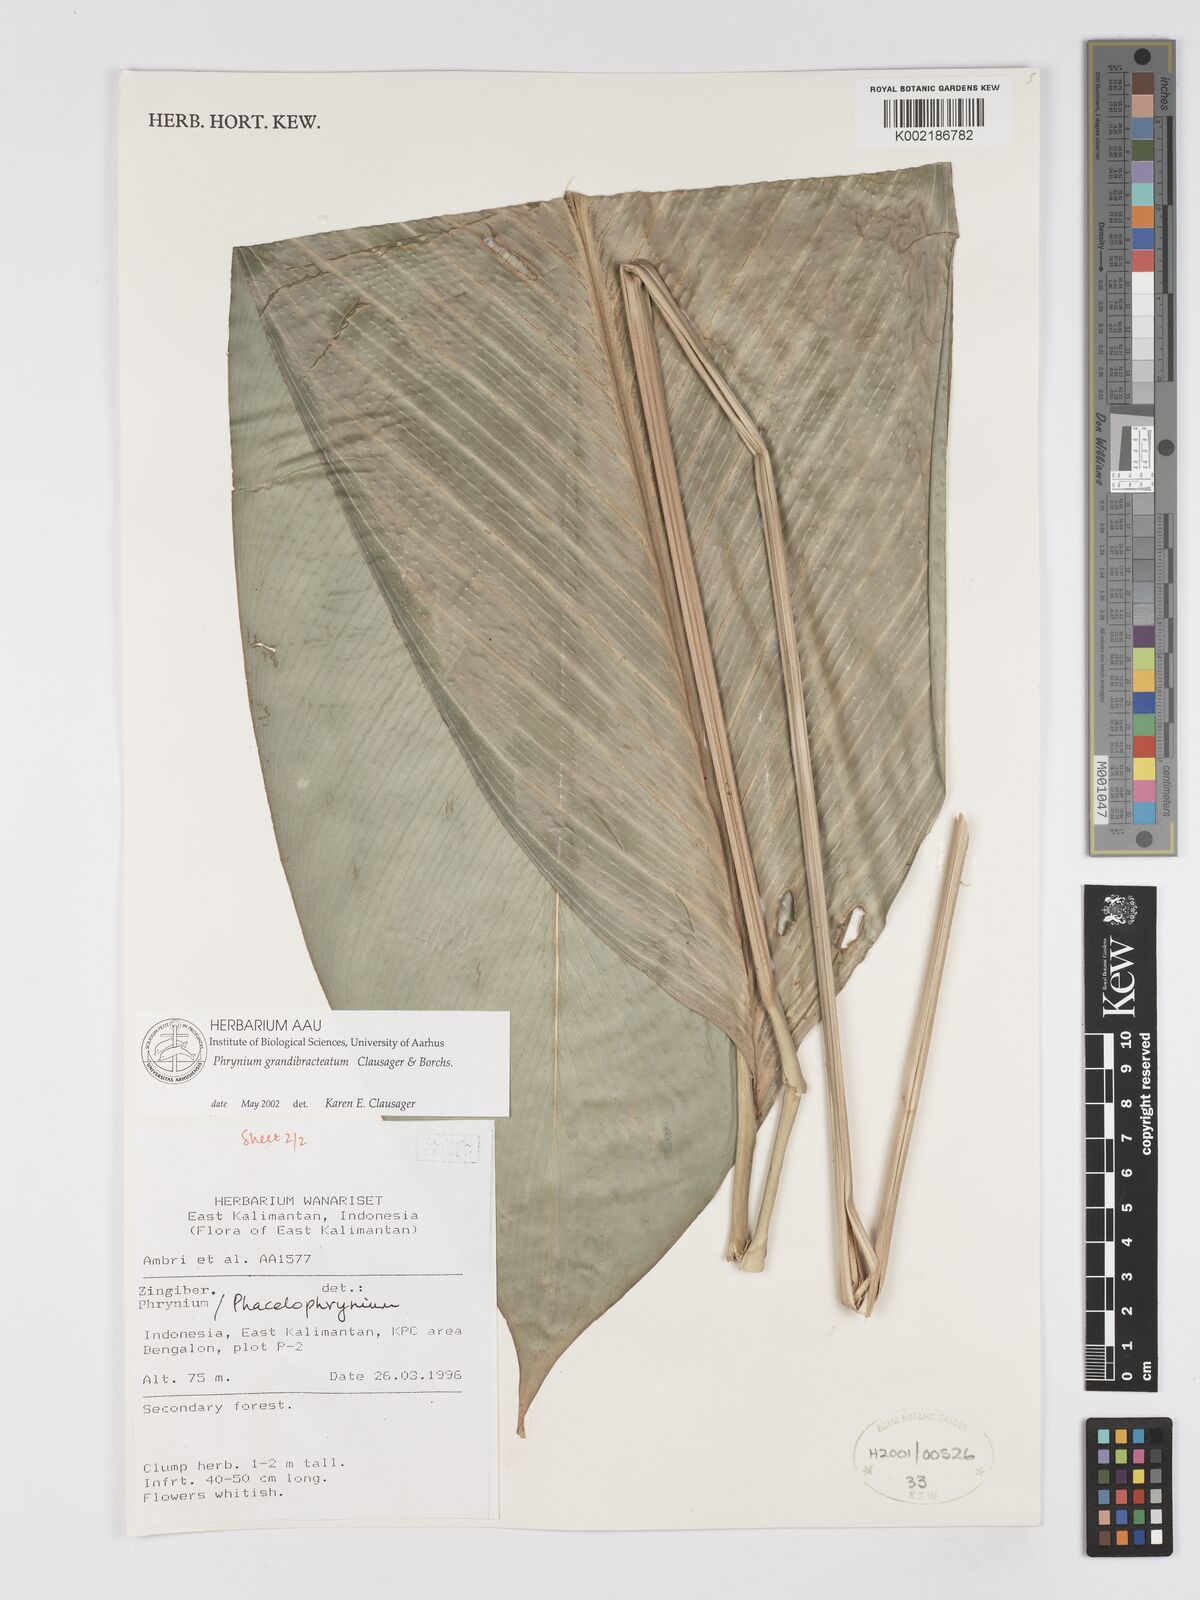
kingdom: Plantae
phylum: Tracheophyta
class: Liliopsida
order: Zingiberales
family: Marantaceae
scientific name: Marantaceae
